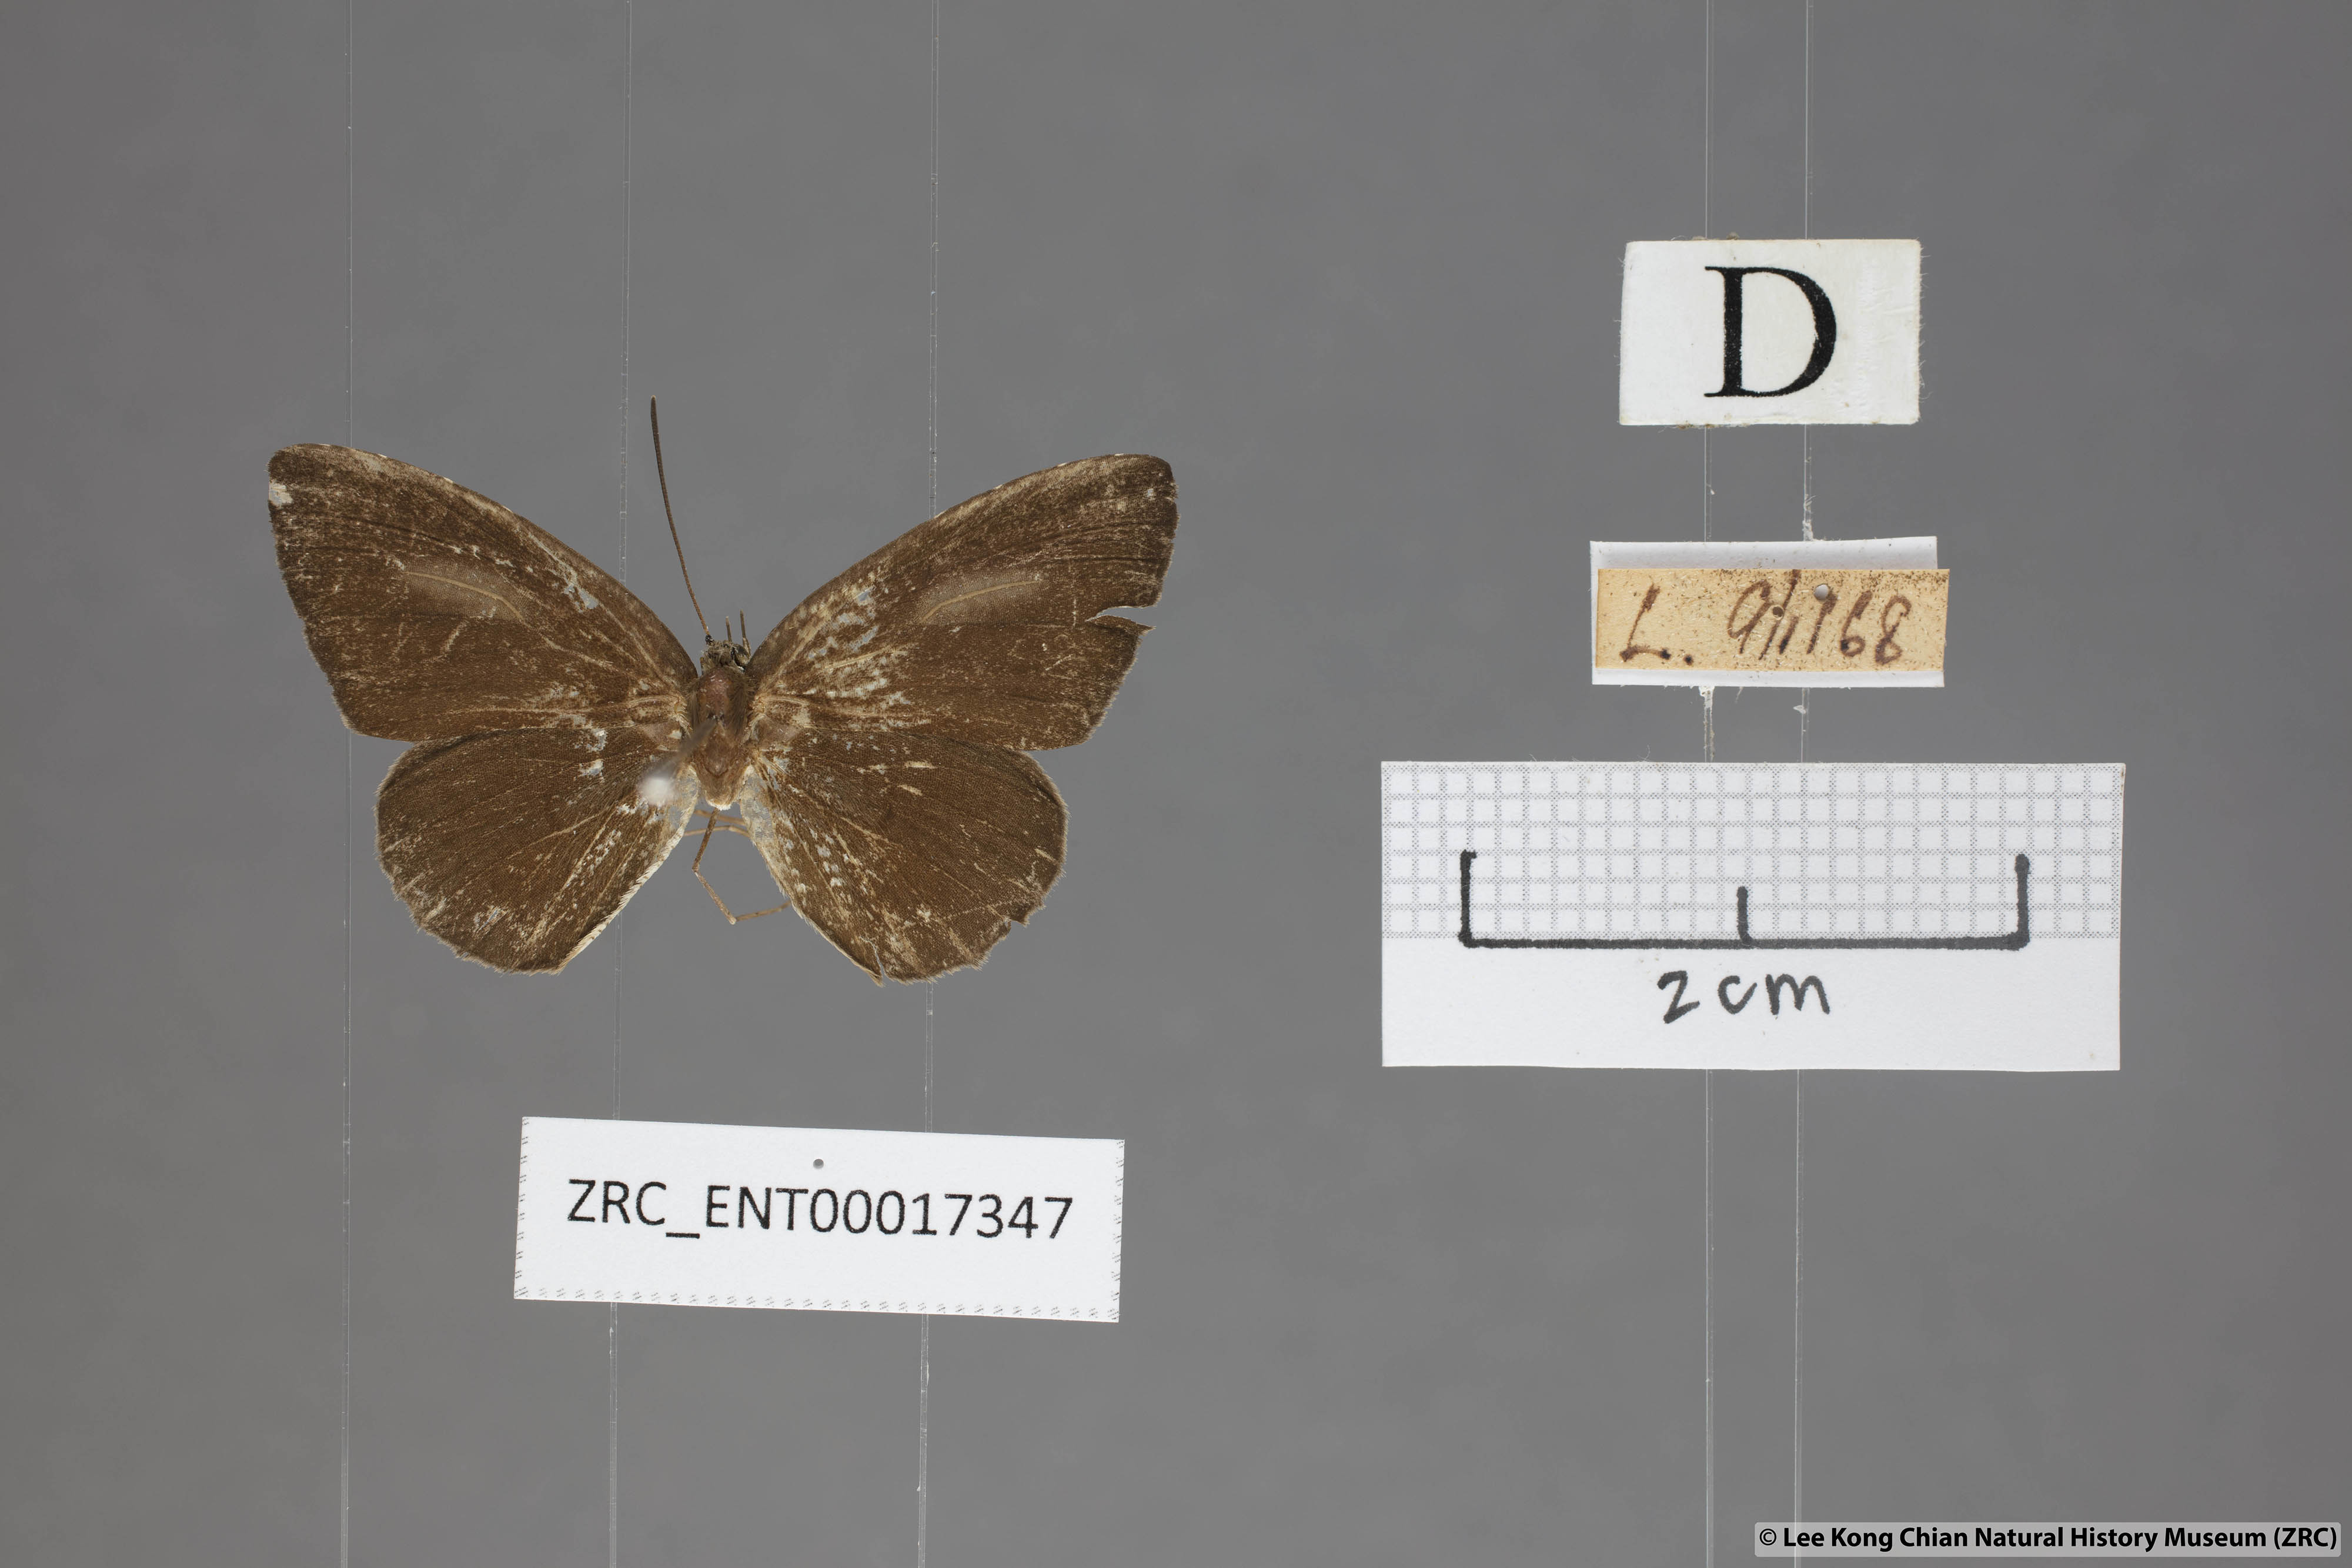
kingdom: Animalia
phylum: Arthropoda
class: Insecta
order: Lepidoptera
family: Lycaenidae
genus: Allotinus
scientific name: Allotinus sarastes
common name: Peninsular darkie
